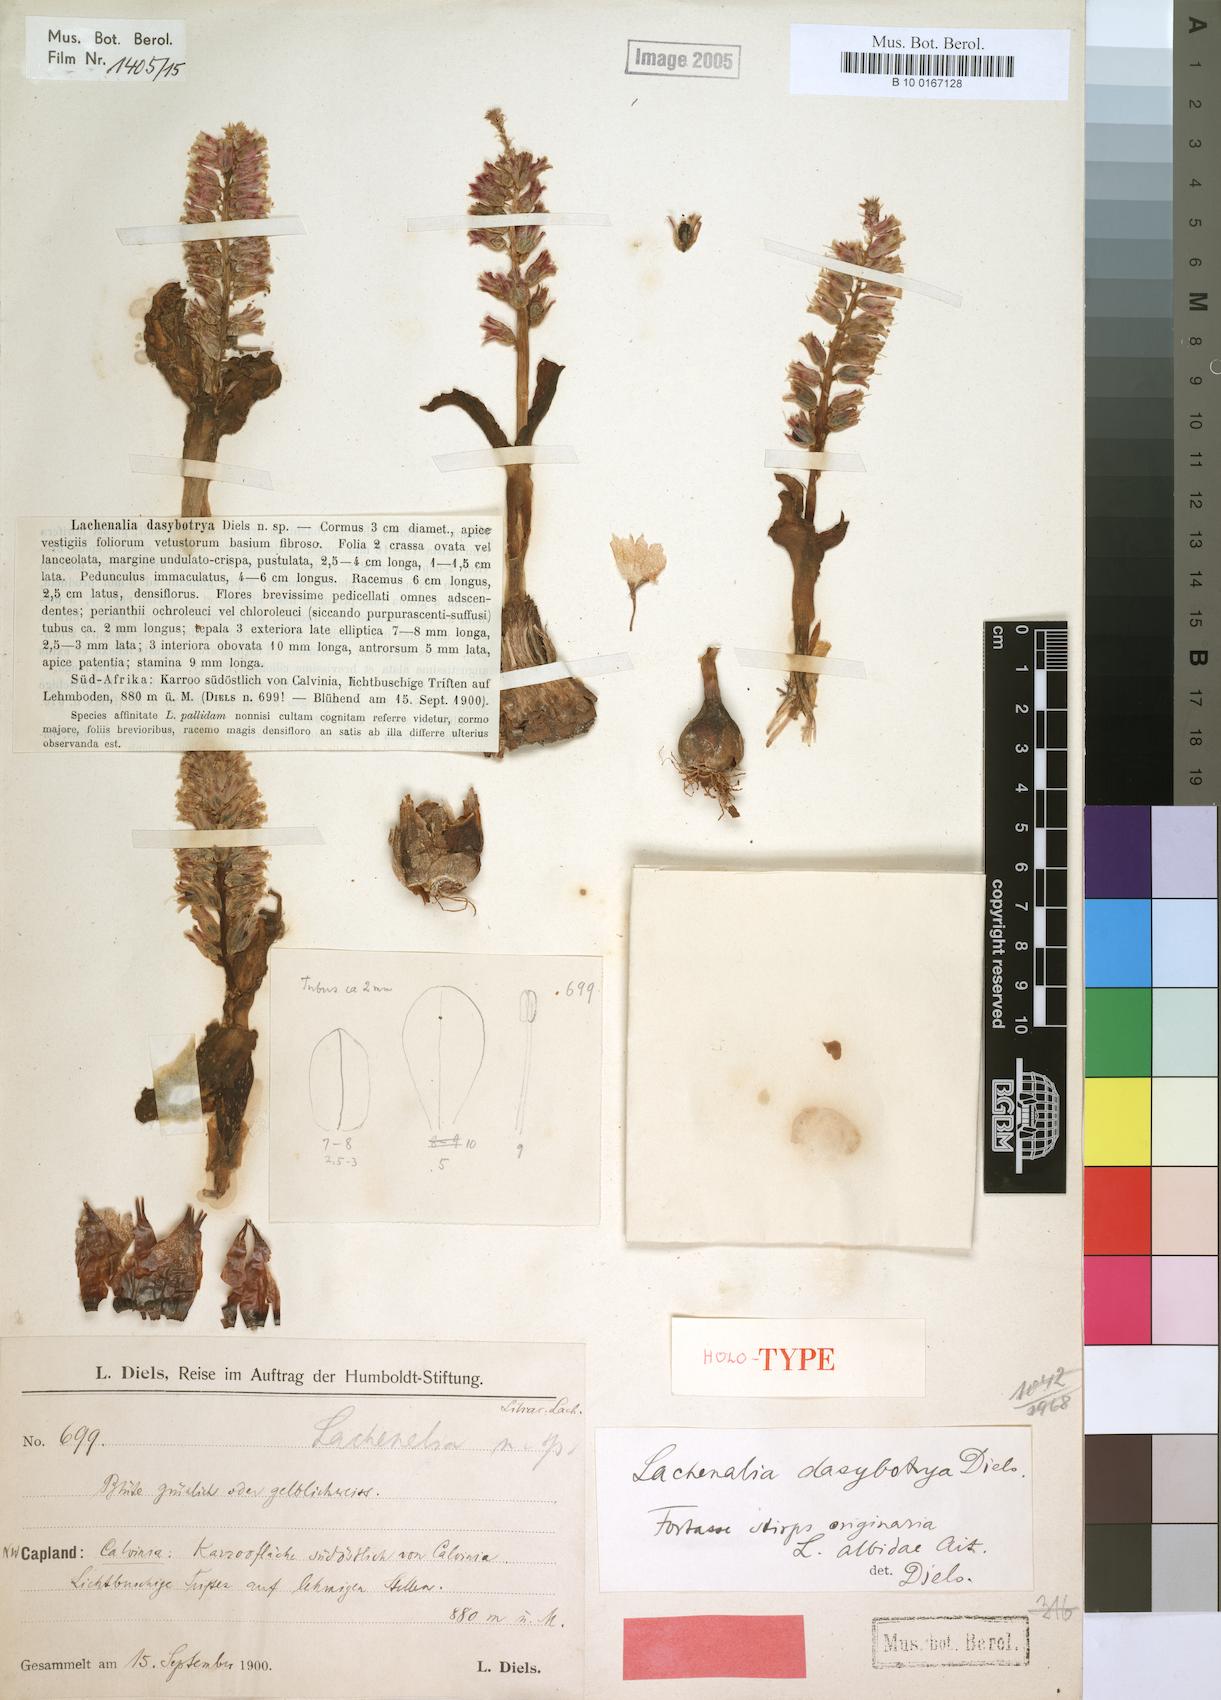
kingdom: Plantae
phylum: Tracheophyta
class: Liliopsida
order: Asparagales
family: Asparagaceae
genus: Lachenalia
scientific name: Lachenalia dasybotrya
